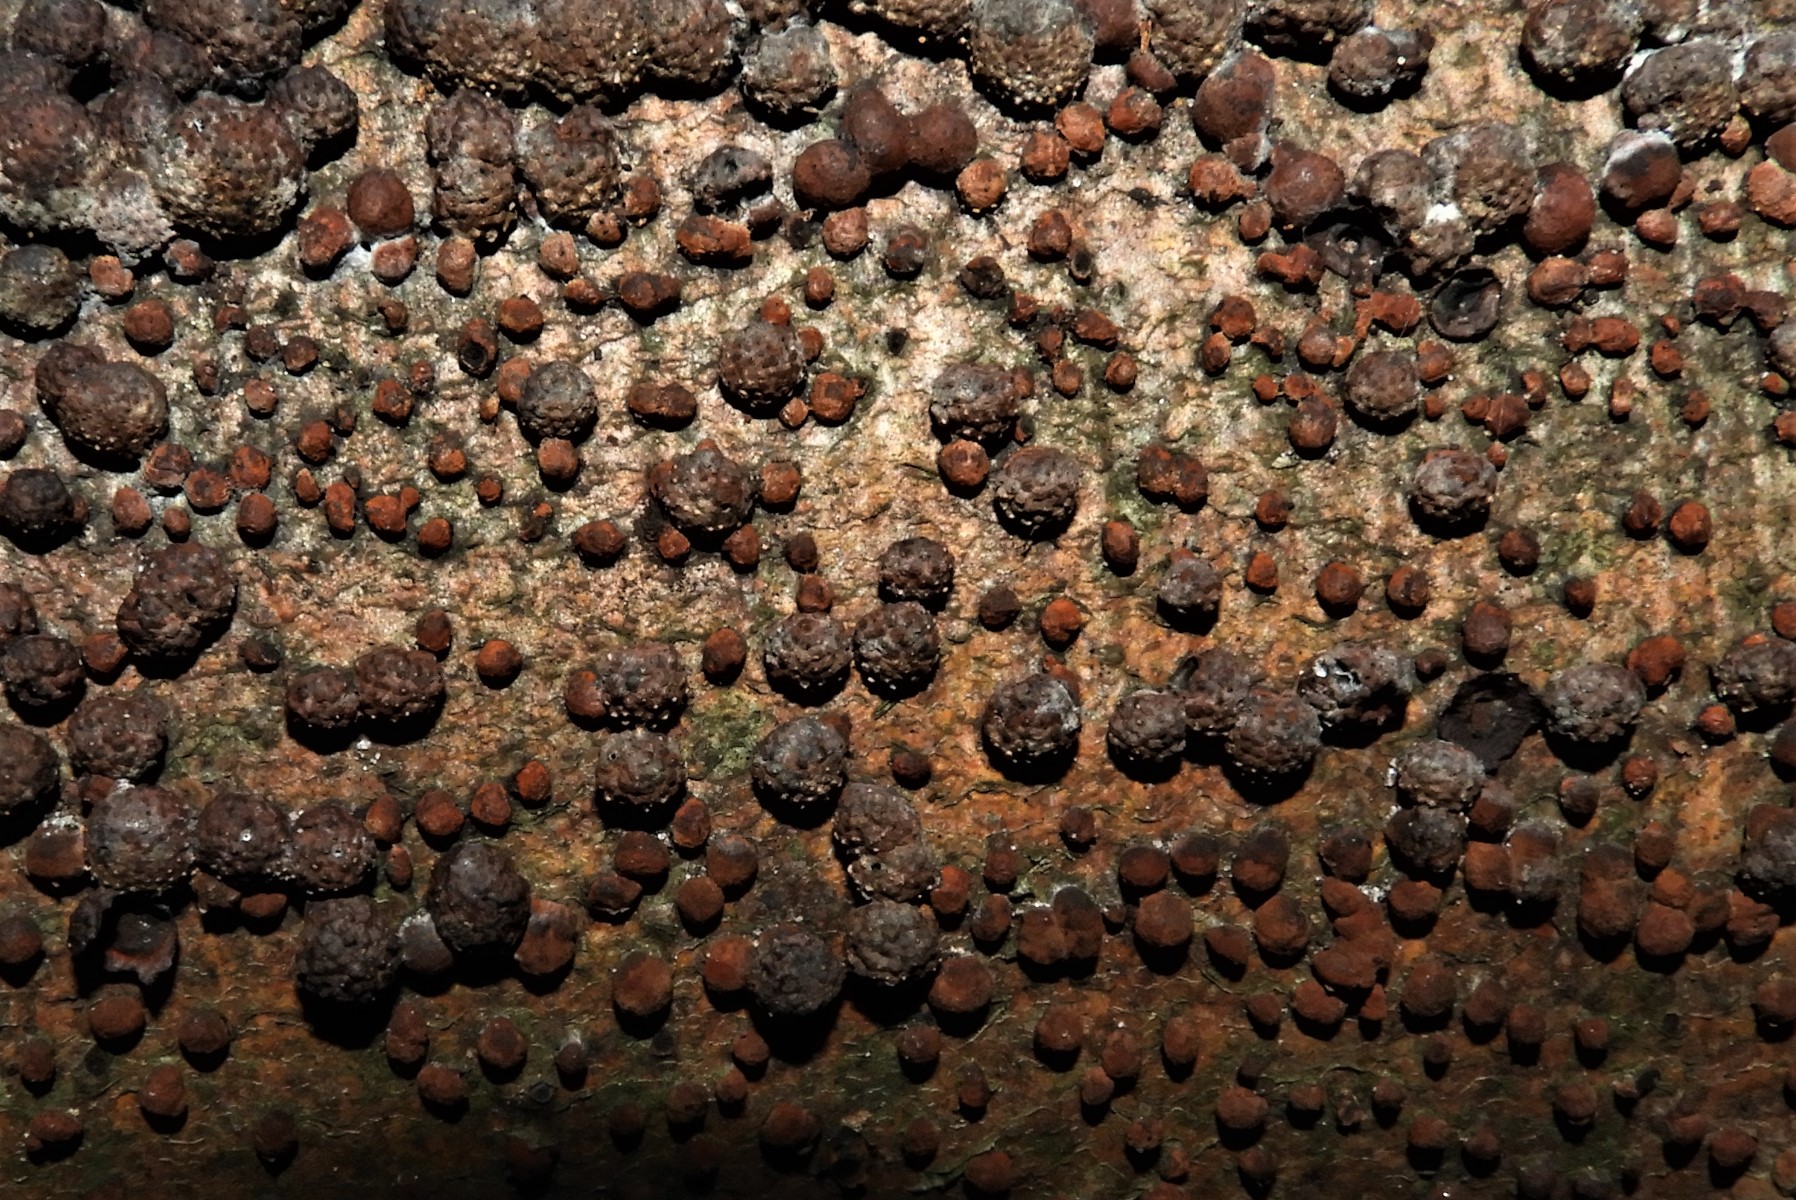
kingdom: Fungi
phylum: Ascomycota
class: Sordariomycetes
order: Xylariales
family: Hypoxylaceae
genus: Hypoxylon
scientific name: Hypoxylon fragiforme
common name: kuljordbær
